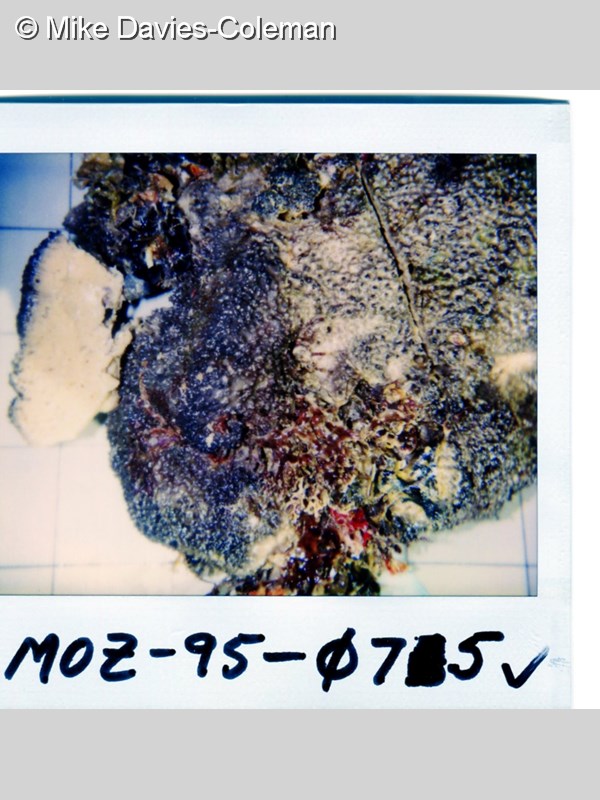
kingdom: Animalia
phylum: Porifera
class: Demospongiae
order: Dictyoceratida
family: Irciniidae
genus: Psammocinia
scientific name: Psammocinia compacta
